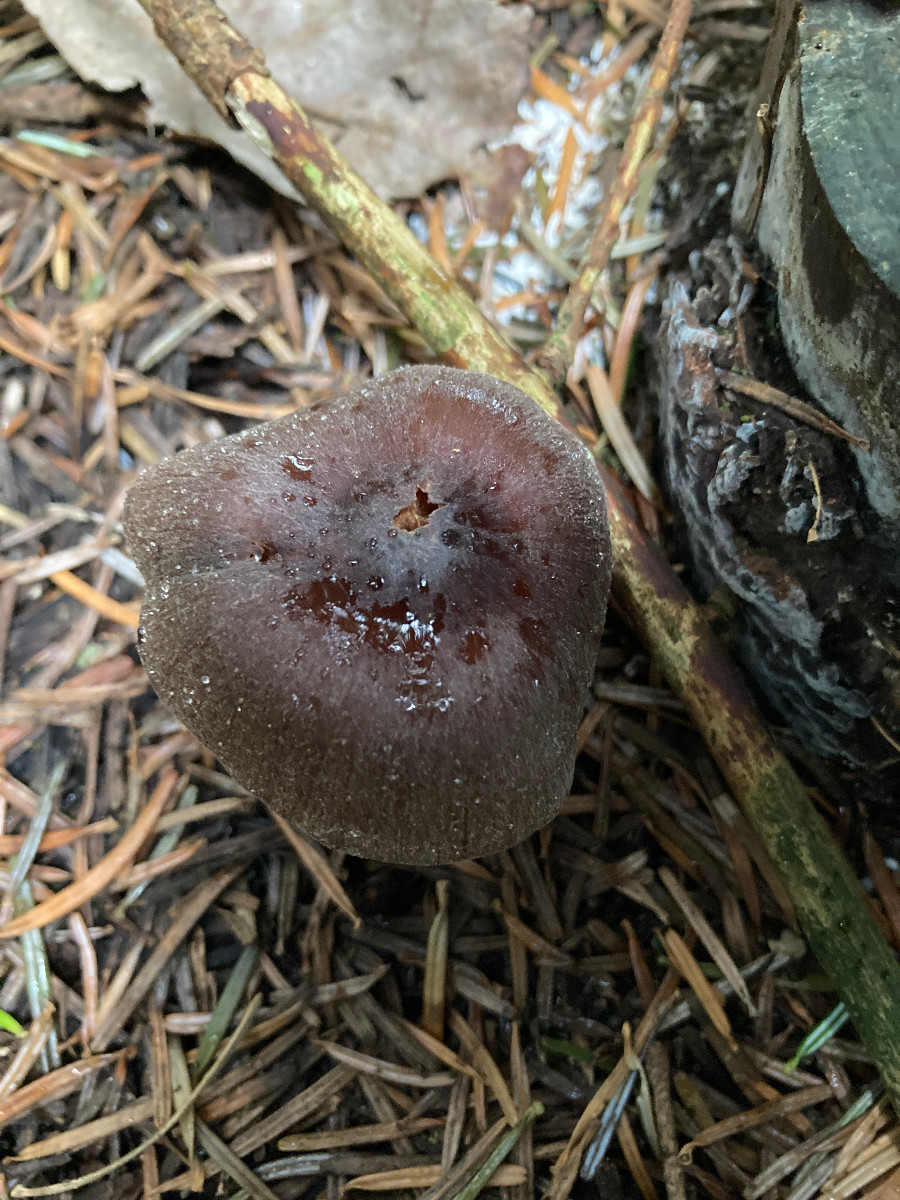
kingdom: Fungi
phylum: Basidiomycota
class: Agaricomycetes
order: Agaricales
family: Cortinariaceae
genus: Cortinarius
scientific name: Cortinarius
